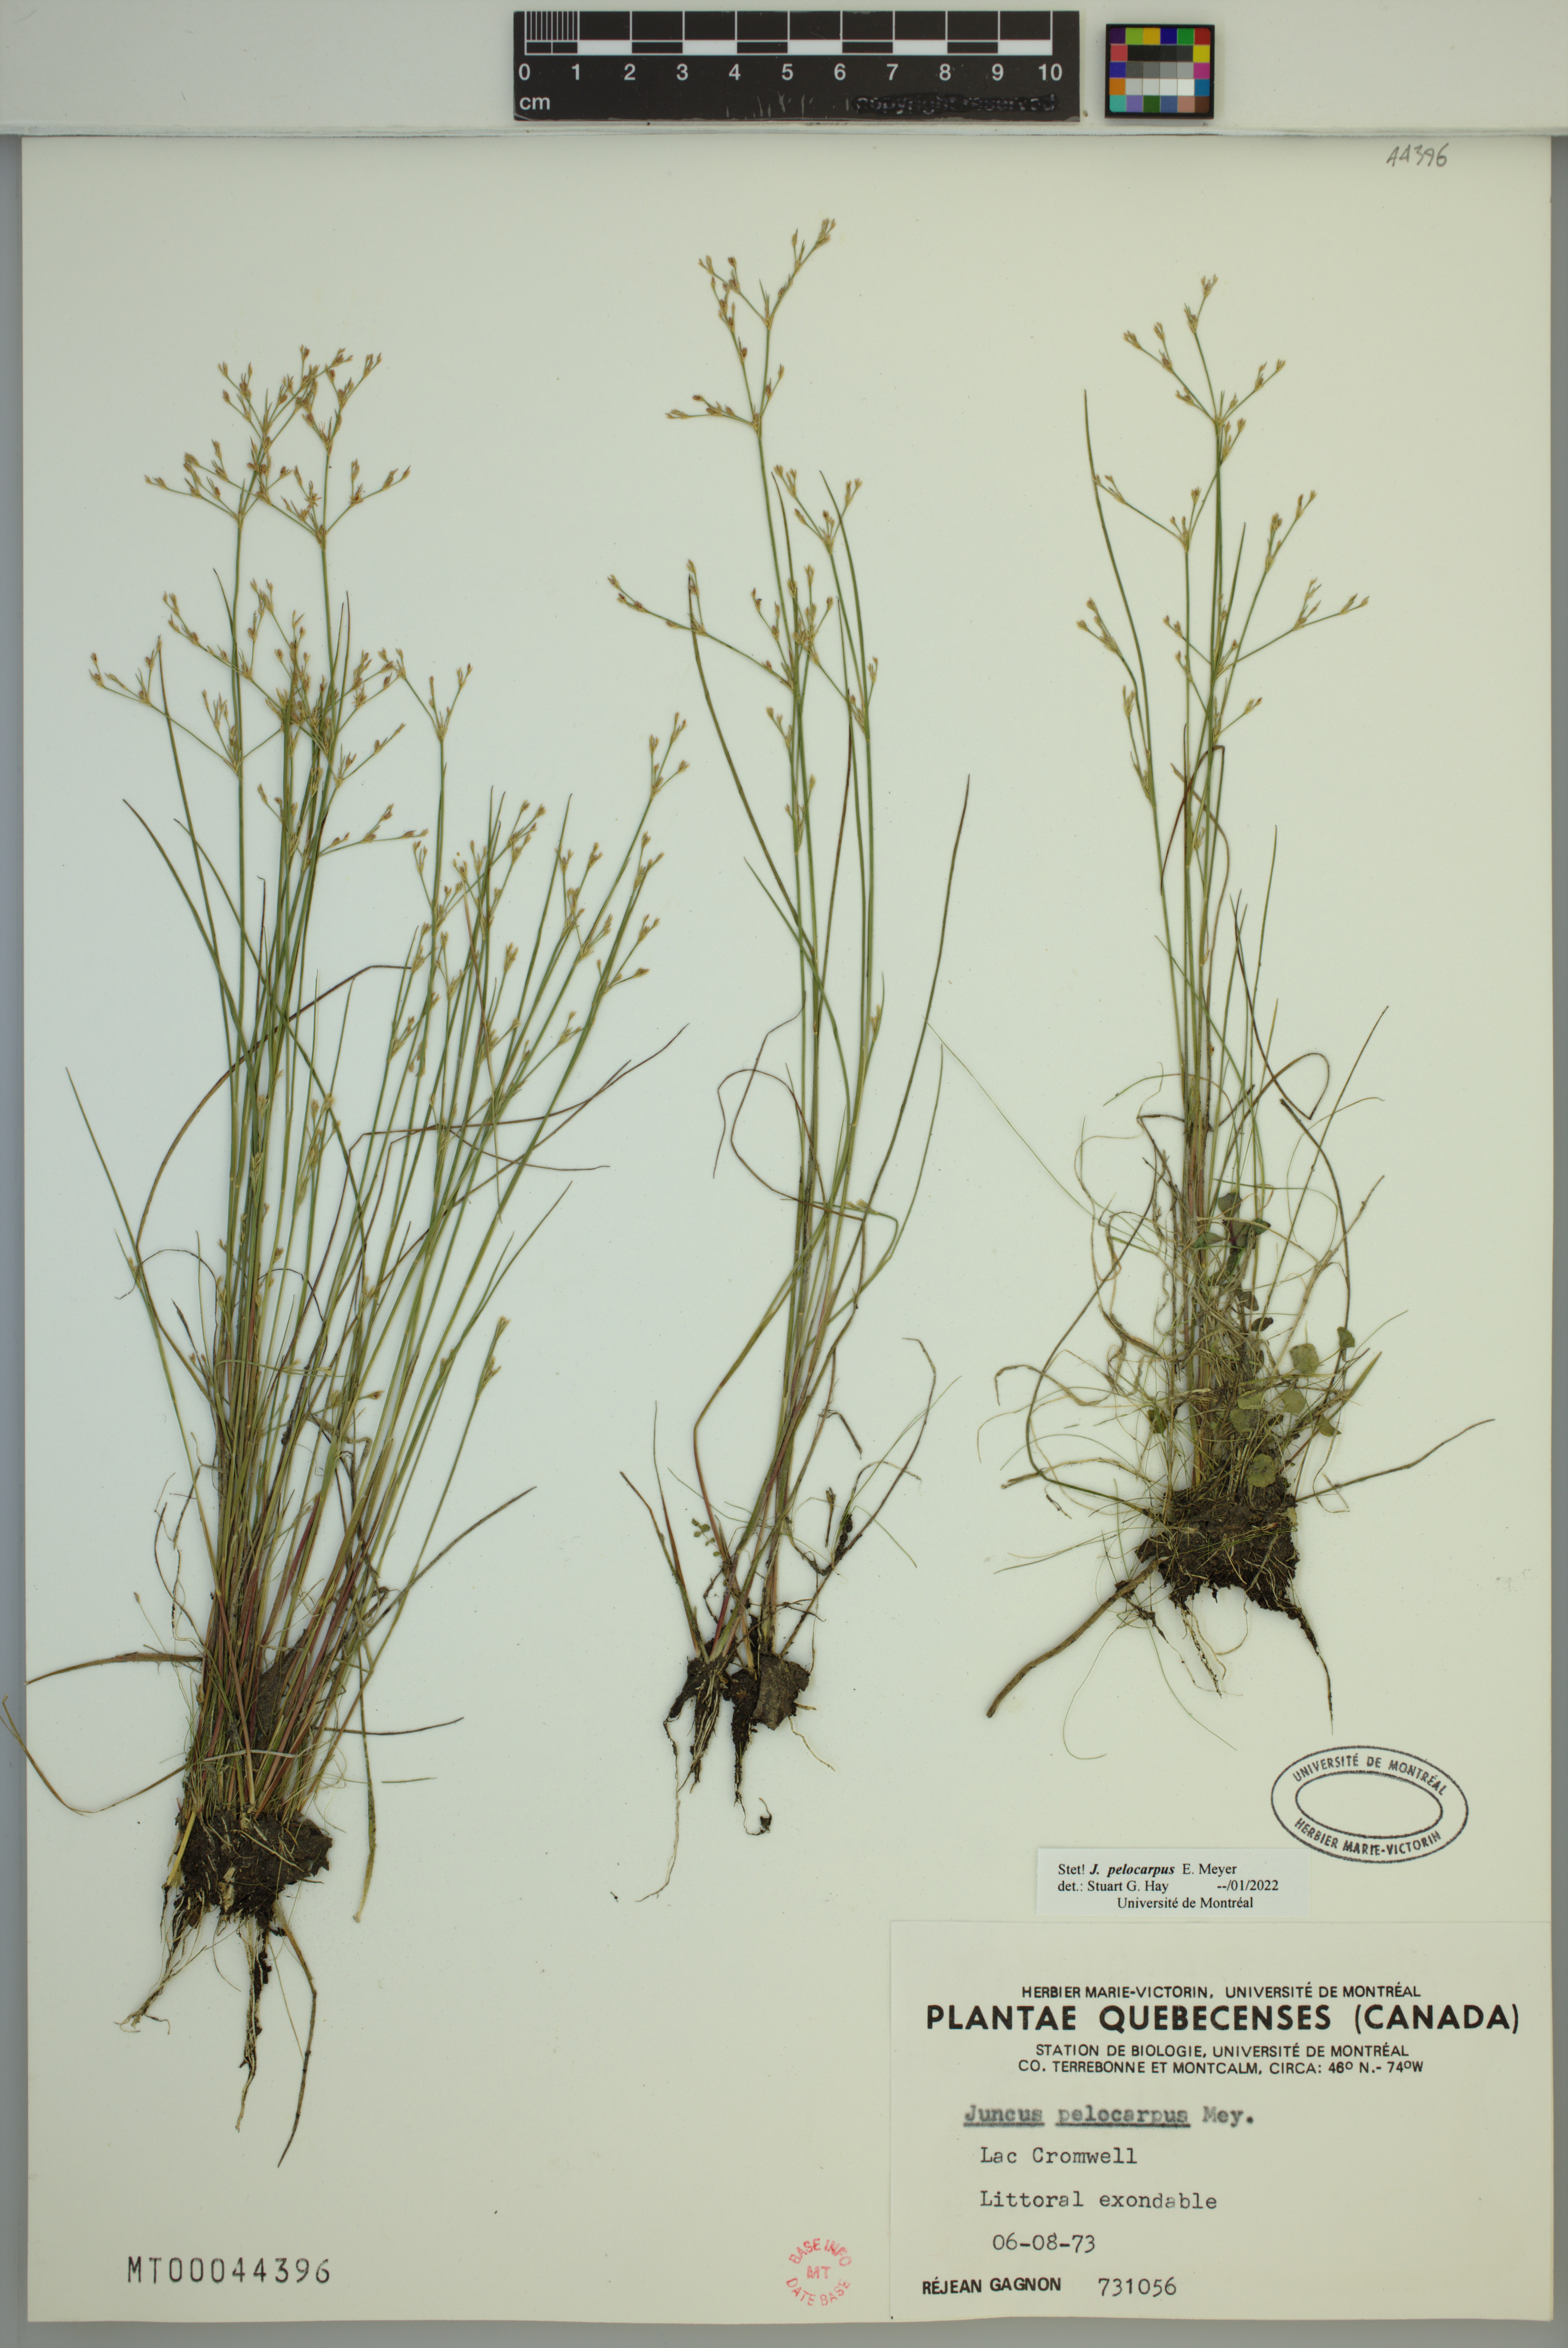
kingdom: Plantae
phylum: Tracheophyta
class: Liliopsida
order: Poales
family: Juncaceae
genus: Juncus
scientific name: Juncus pelocarpus
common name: Brown-fruited rush
